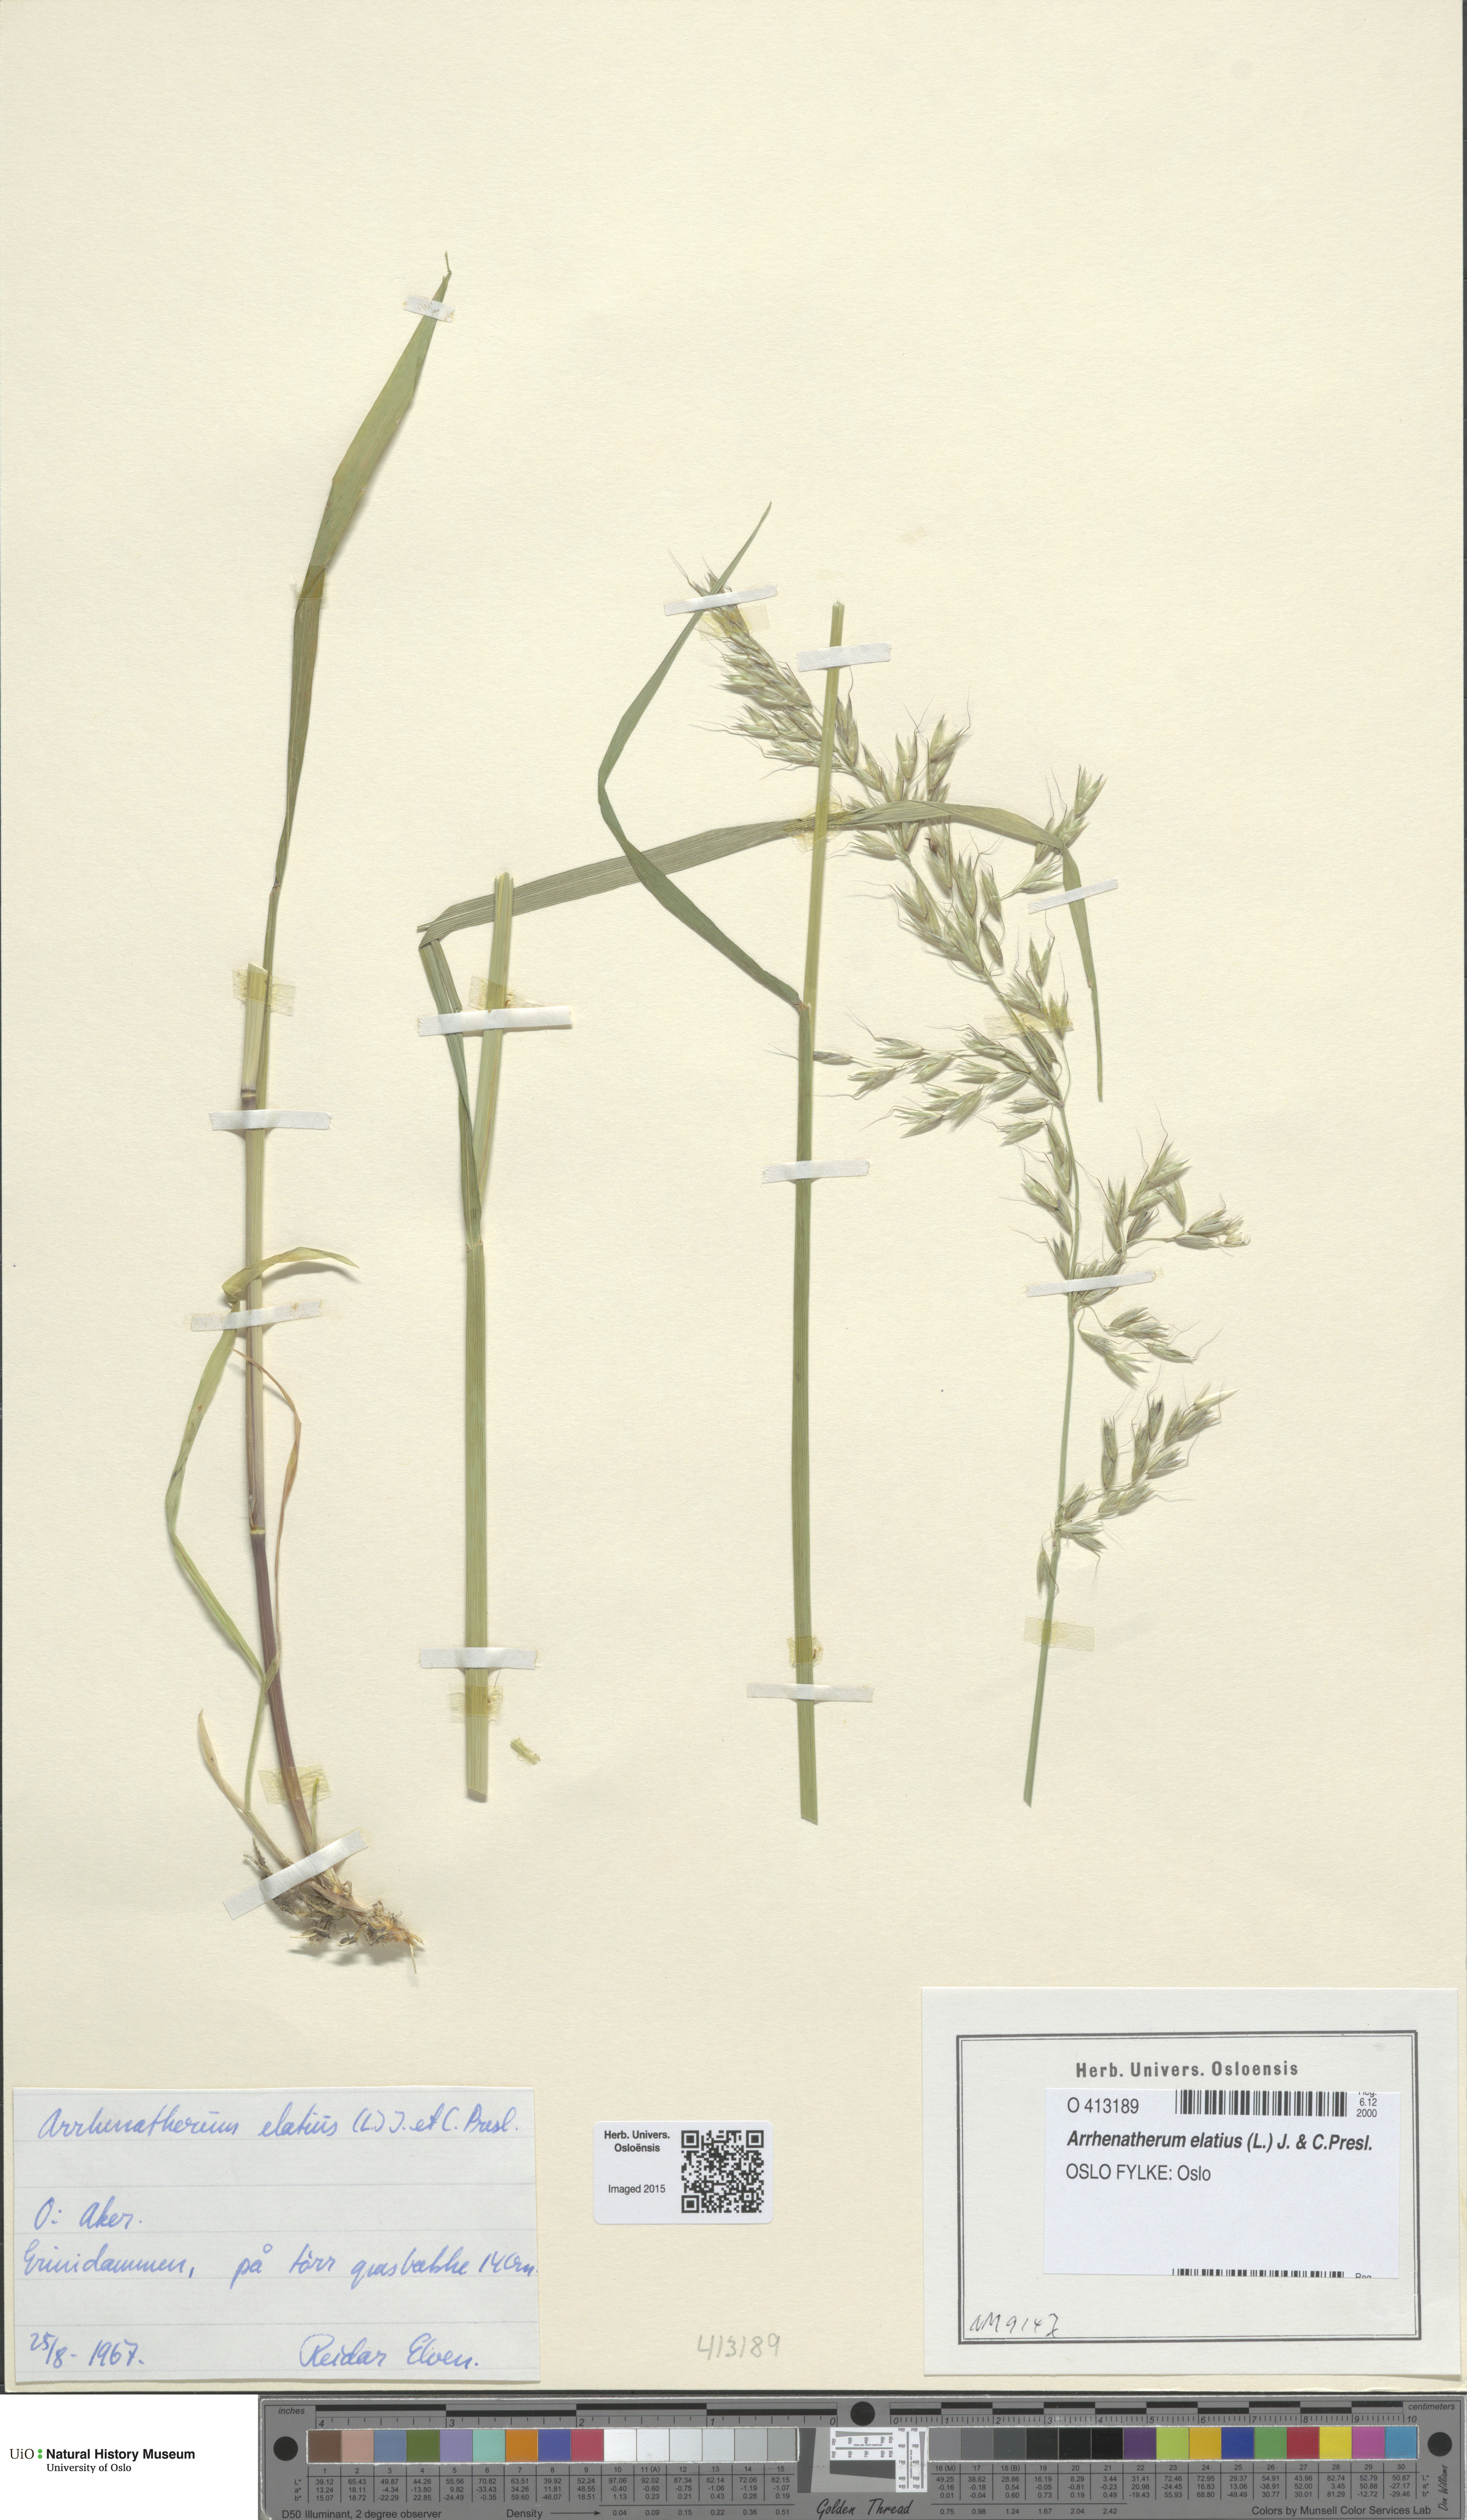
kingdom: Plantae
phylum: Tracheophyta
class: Liliopsida
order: Poales
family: Poaceae
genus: Arrhenatherum
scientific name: Arrhenatherum elatius
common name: Tall oatgrass
